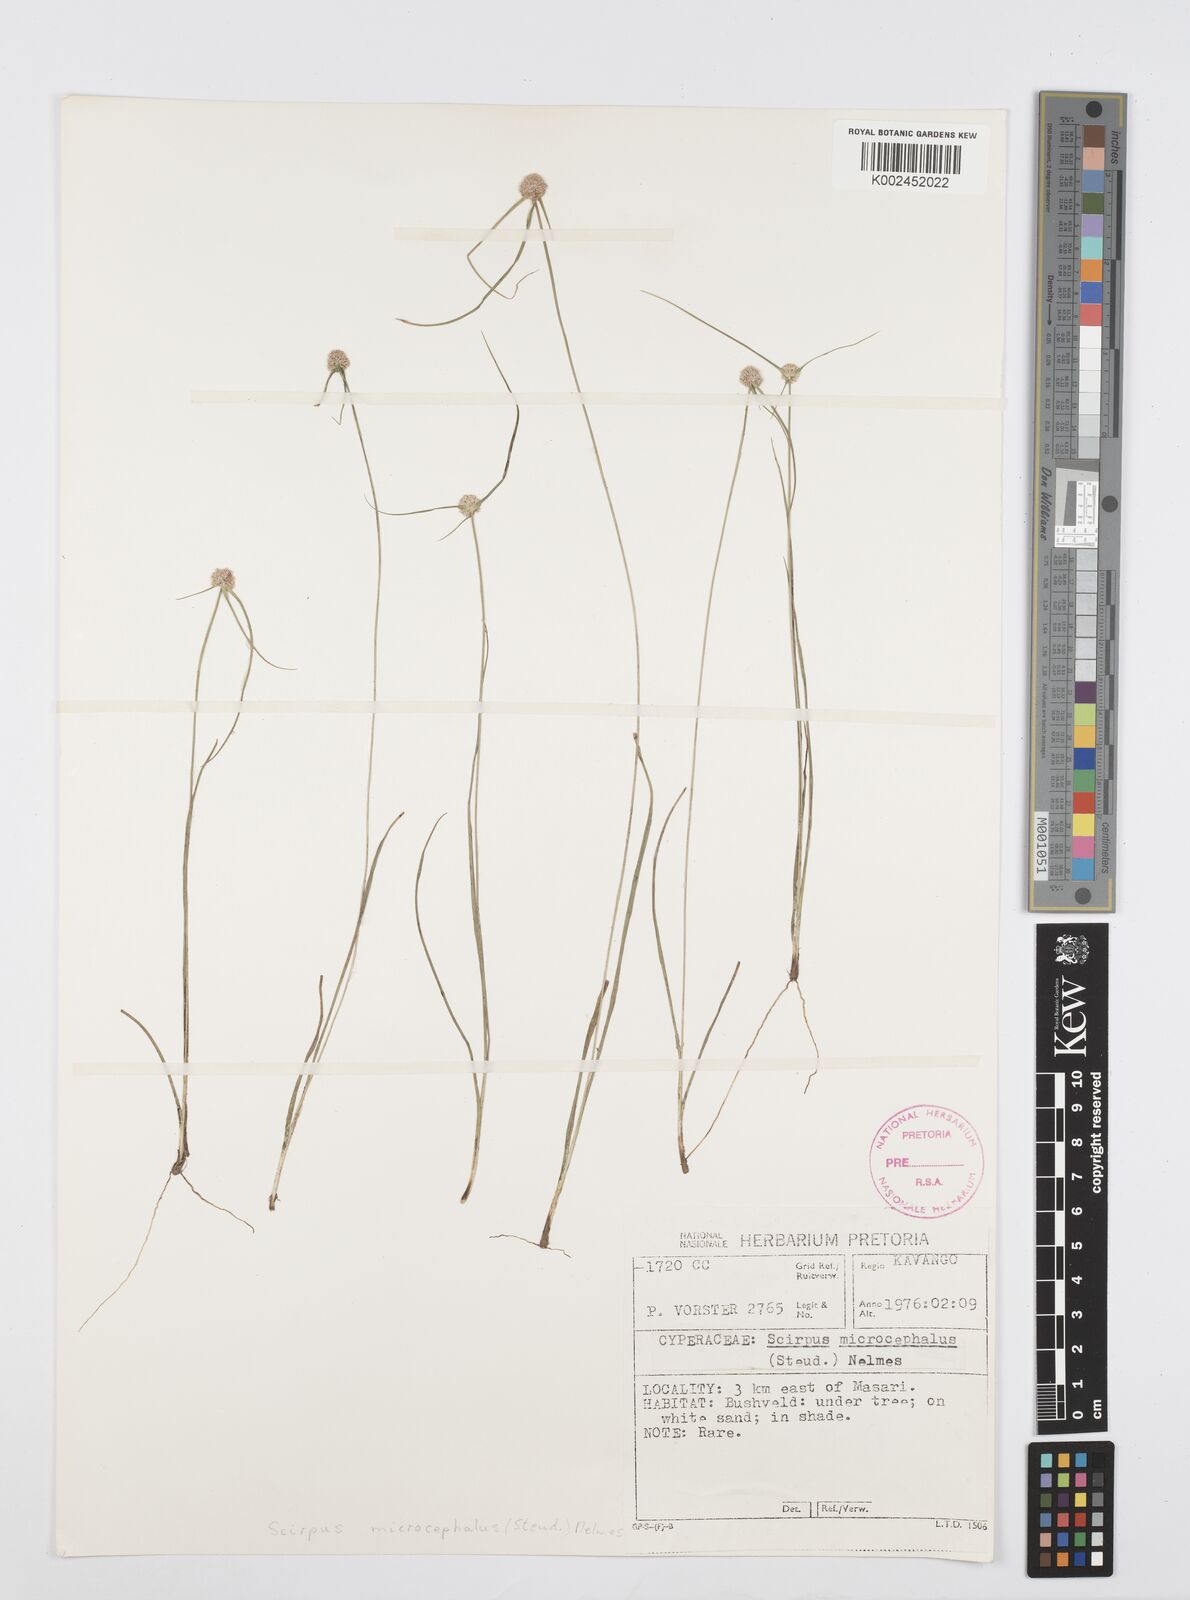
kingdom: Plantae
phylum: Tracheophyta
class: Liliopsida
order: Poales
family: Cyperaceae
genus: Cyperus
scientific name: Cyperus microcephalus
